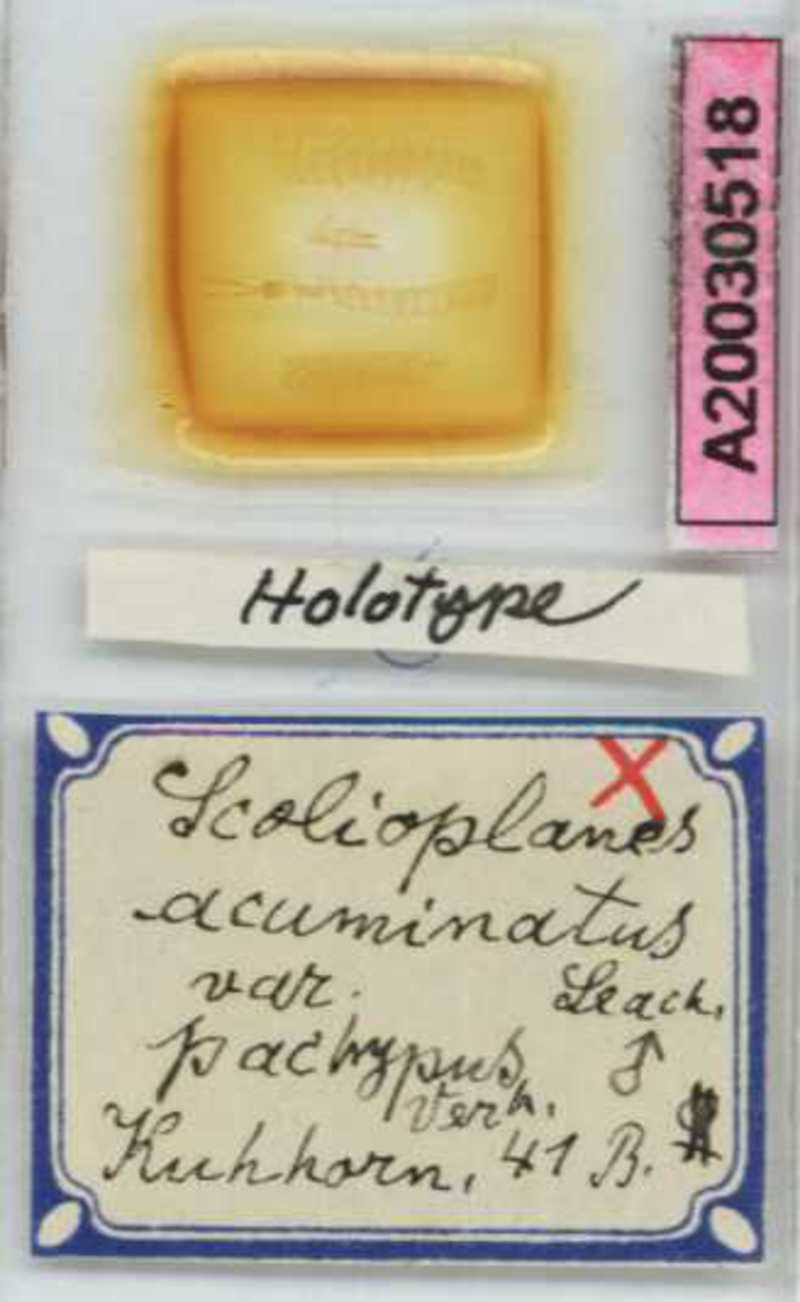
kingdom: Animalia
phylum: Arthropoda
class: Chilopoda
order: Geophilomorpha
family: Linotaeniidae
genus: Strigamia
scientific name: Strigamia acuminata
